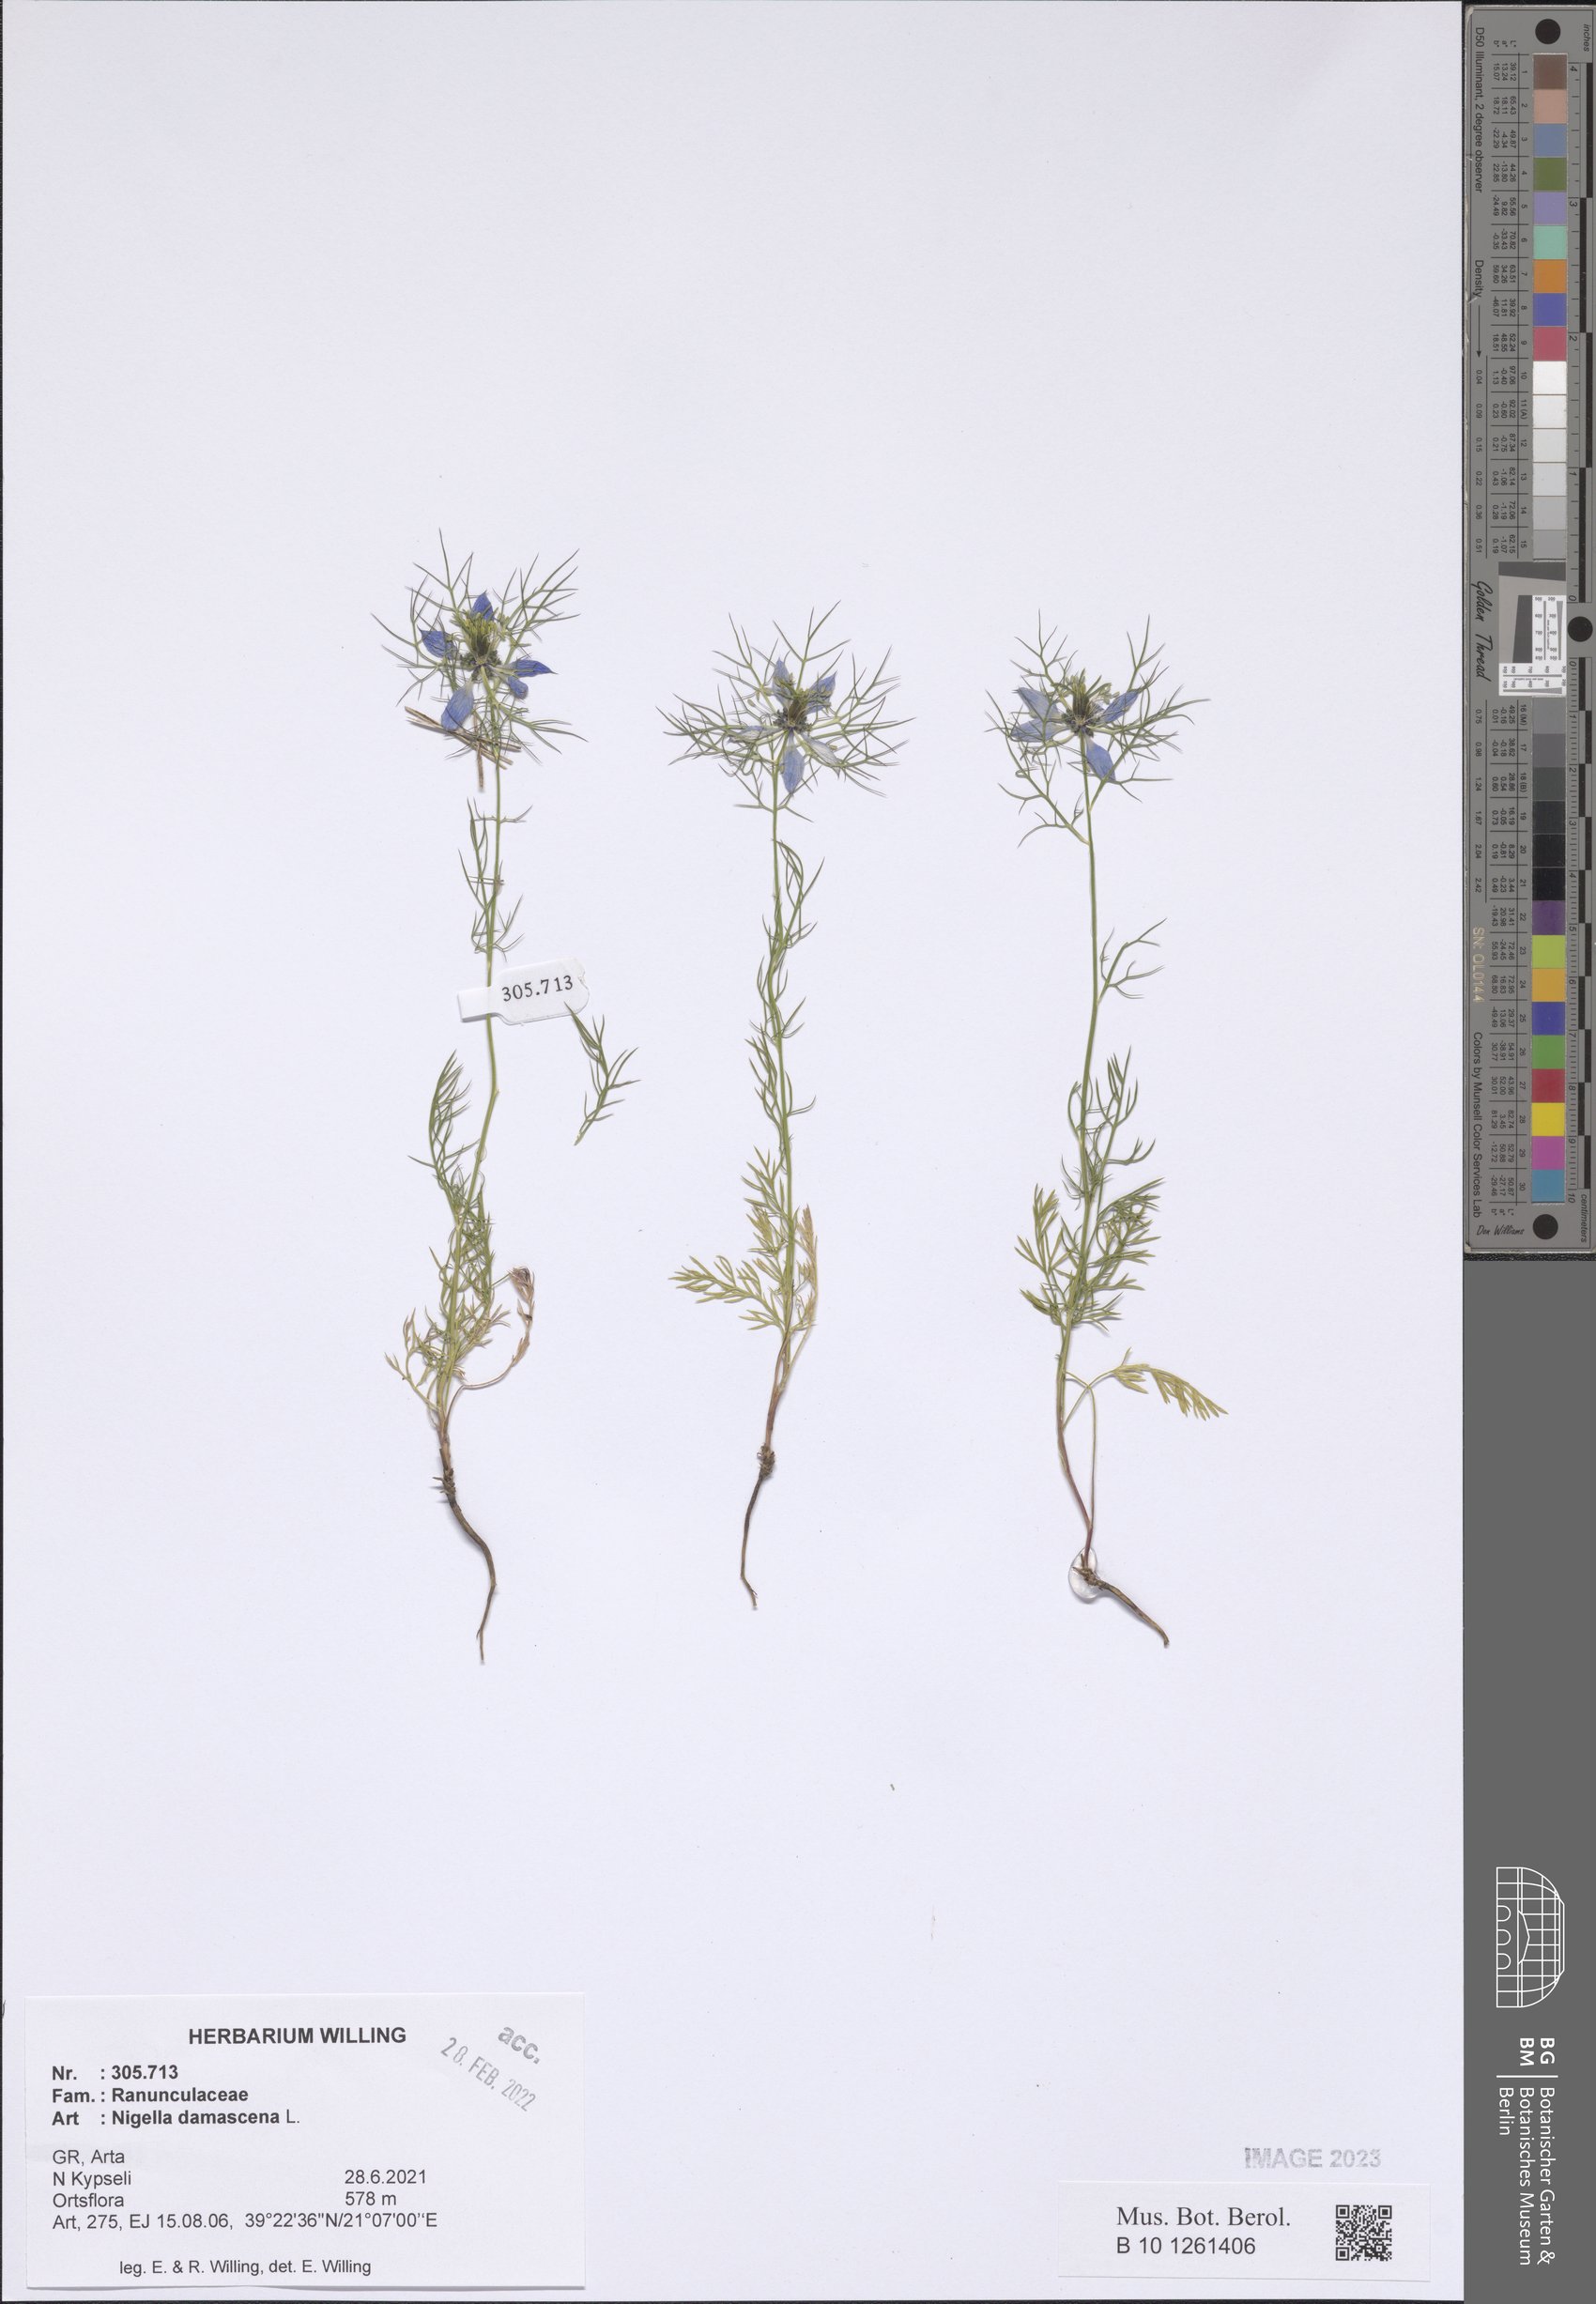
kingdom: Plantae
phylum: Tracheophyta
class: Magnoliopsida
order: Ranunculales
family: Ranunculaceae
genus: Nigella
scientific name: Nigella damascena
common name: Love-in-a-mist
